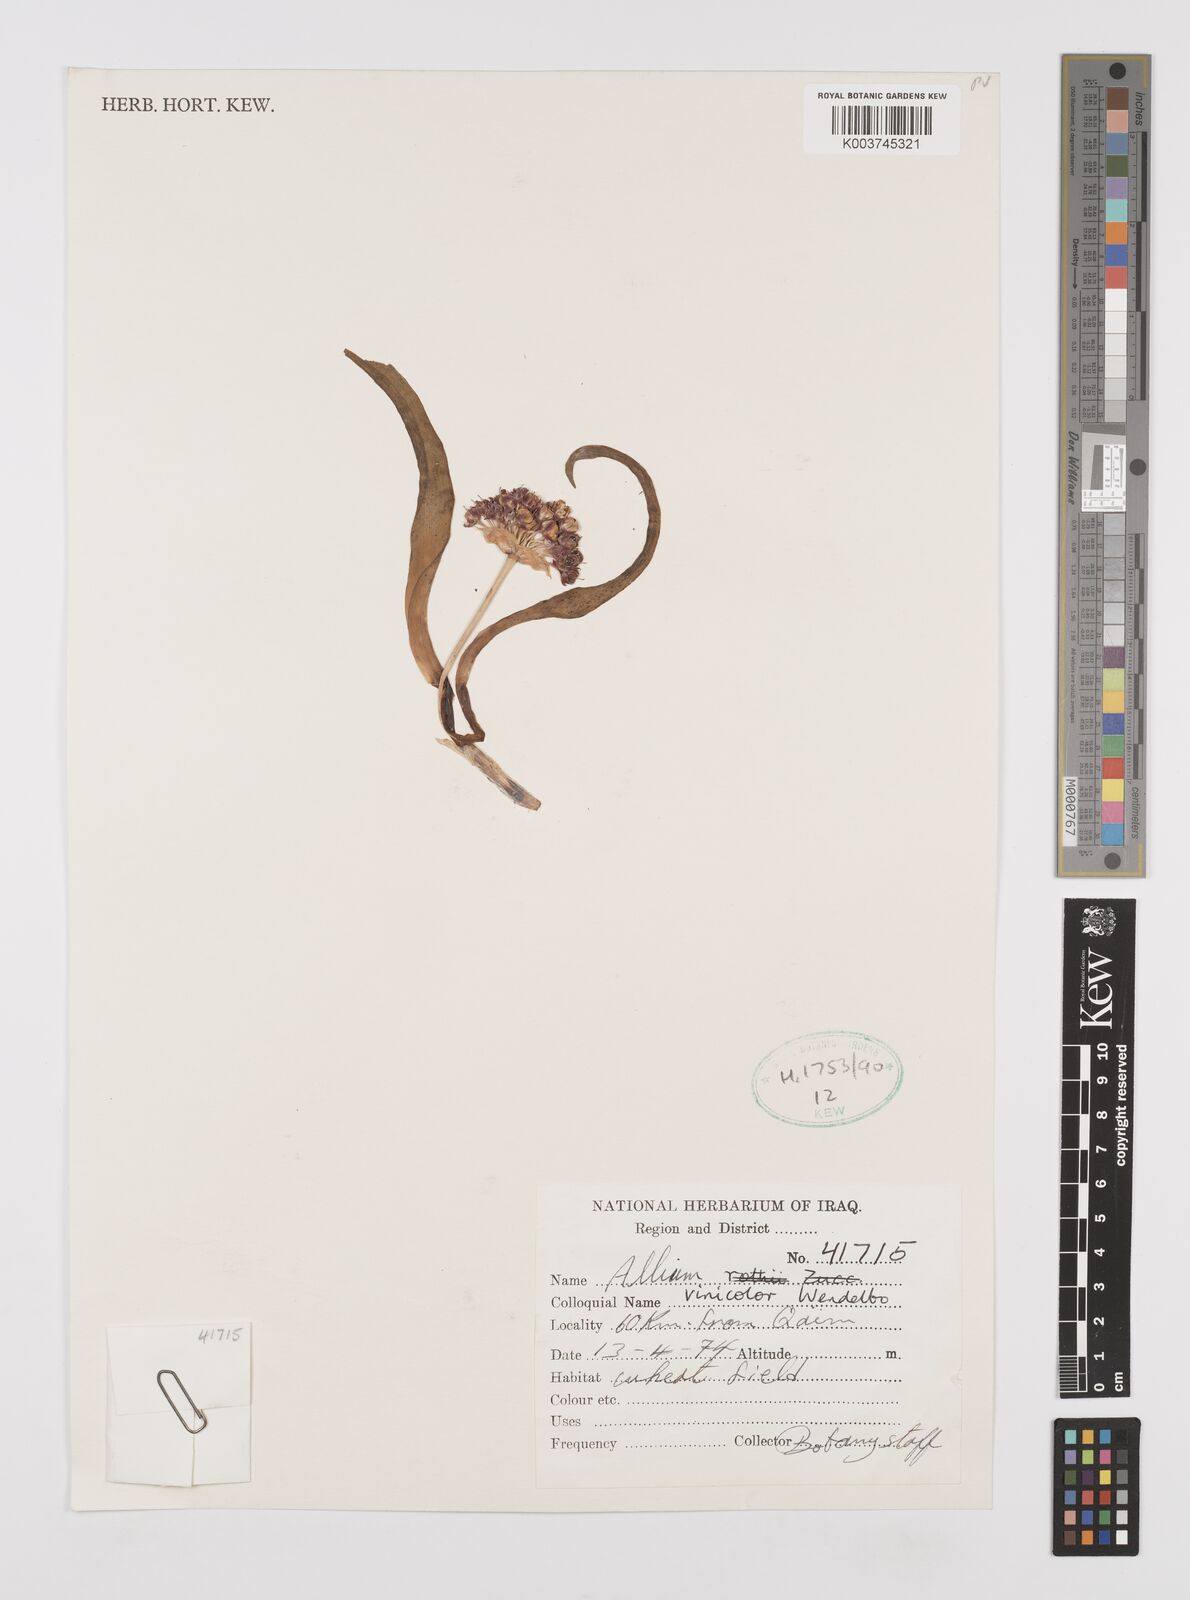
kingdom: Plantae
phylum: Tracheophyta
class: Liliopsida
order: Asparagales
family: Amaryllidaceae
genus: Allium
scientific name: Allium vinicolor
